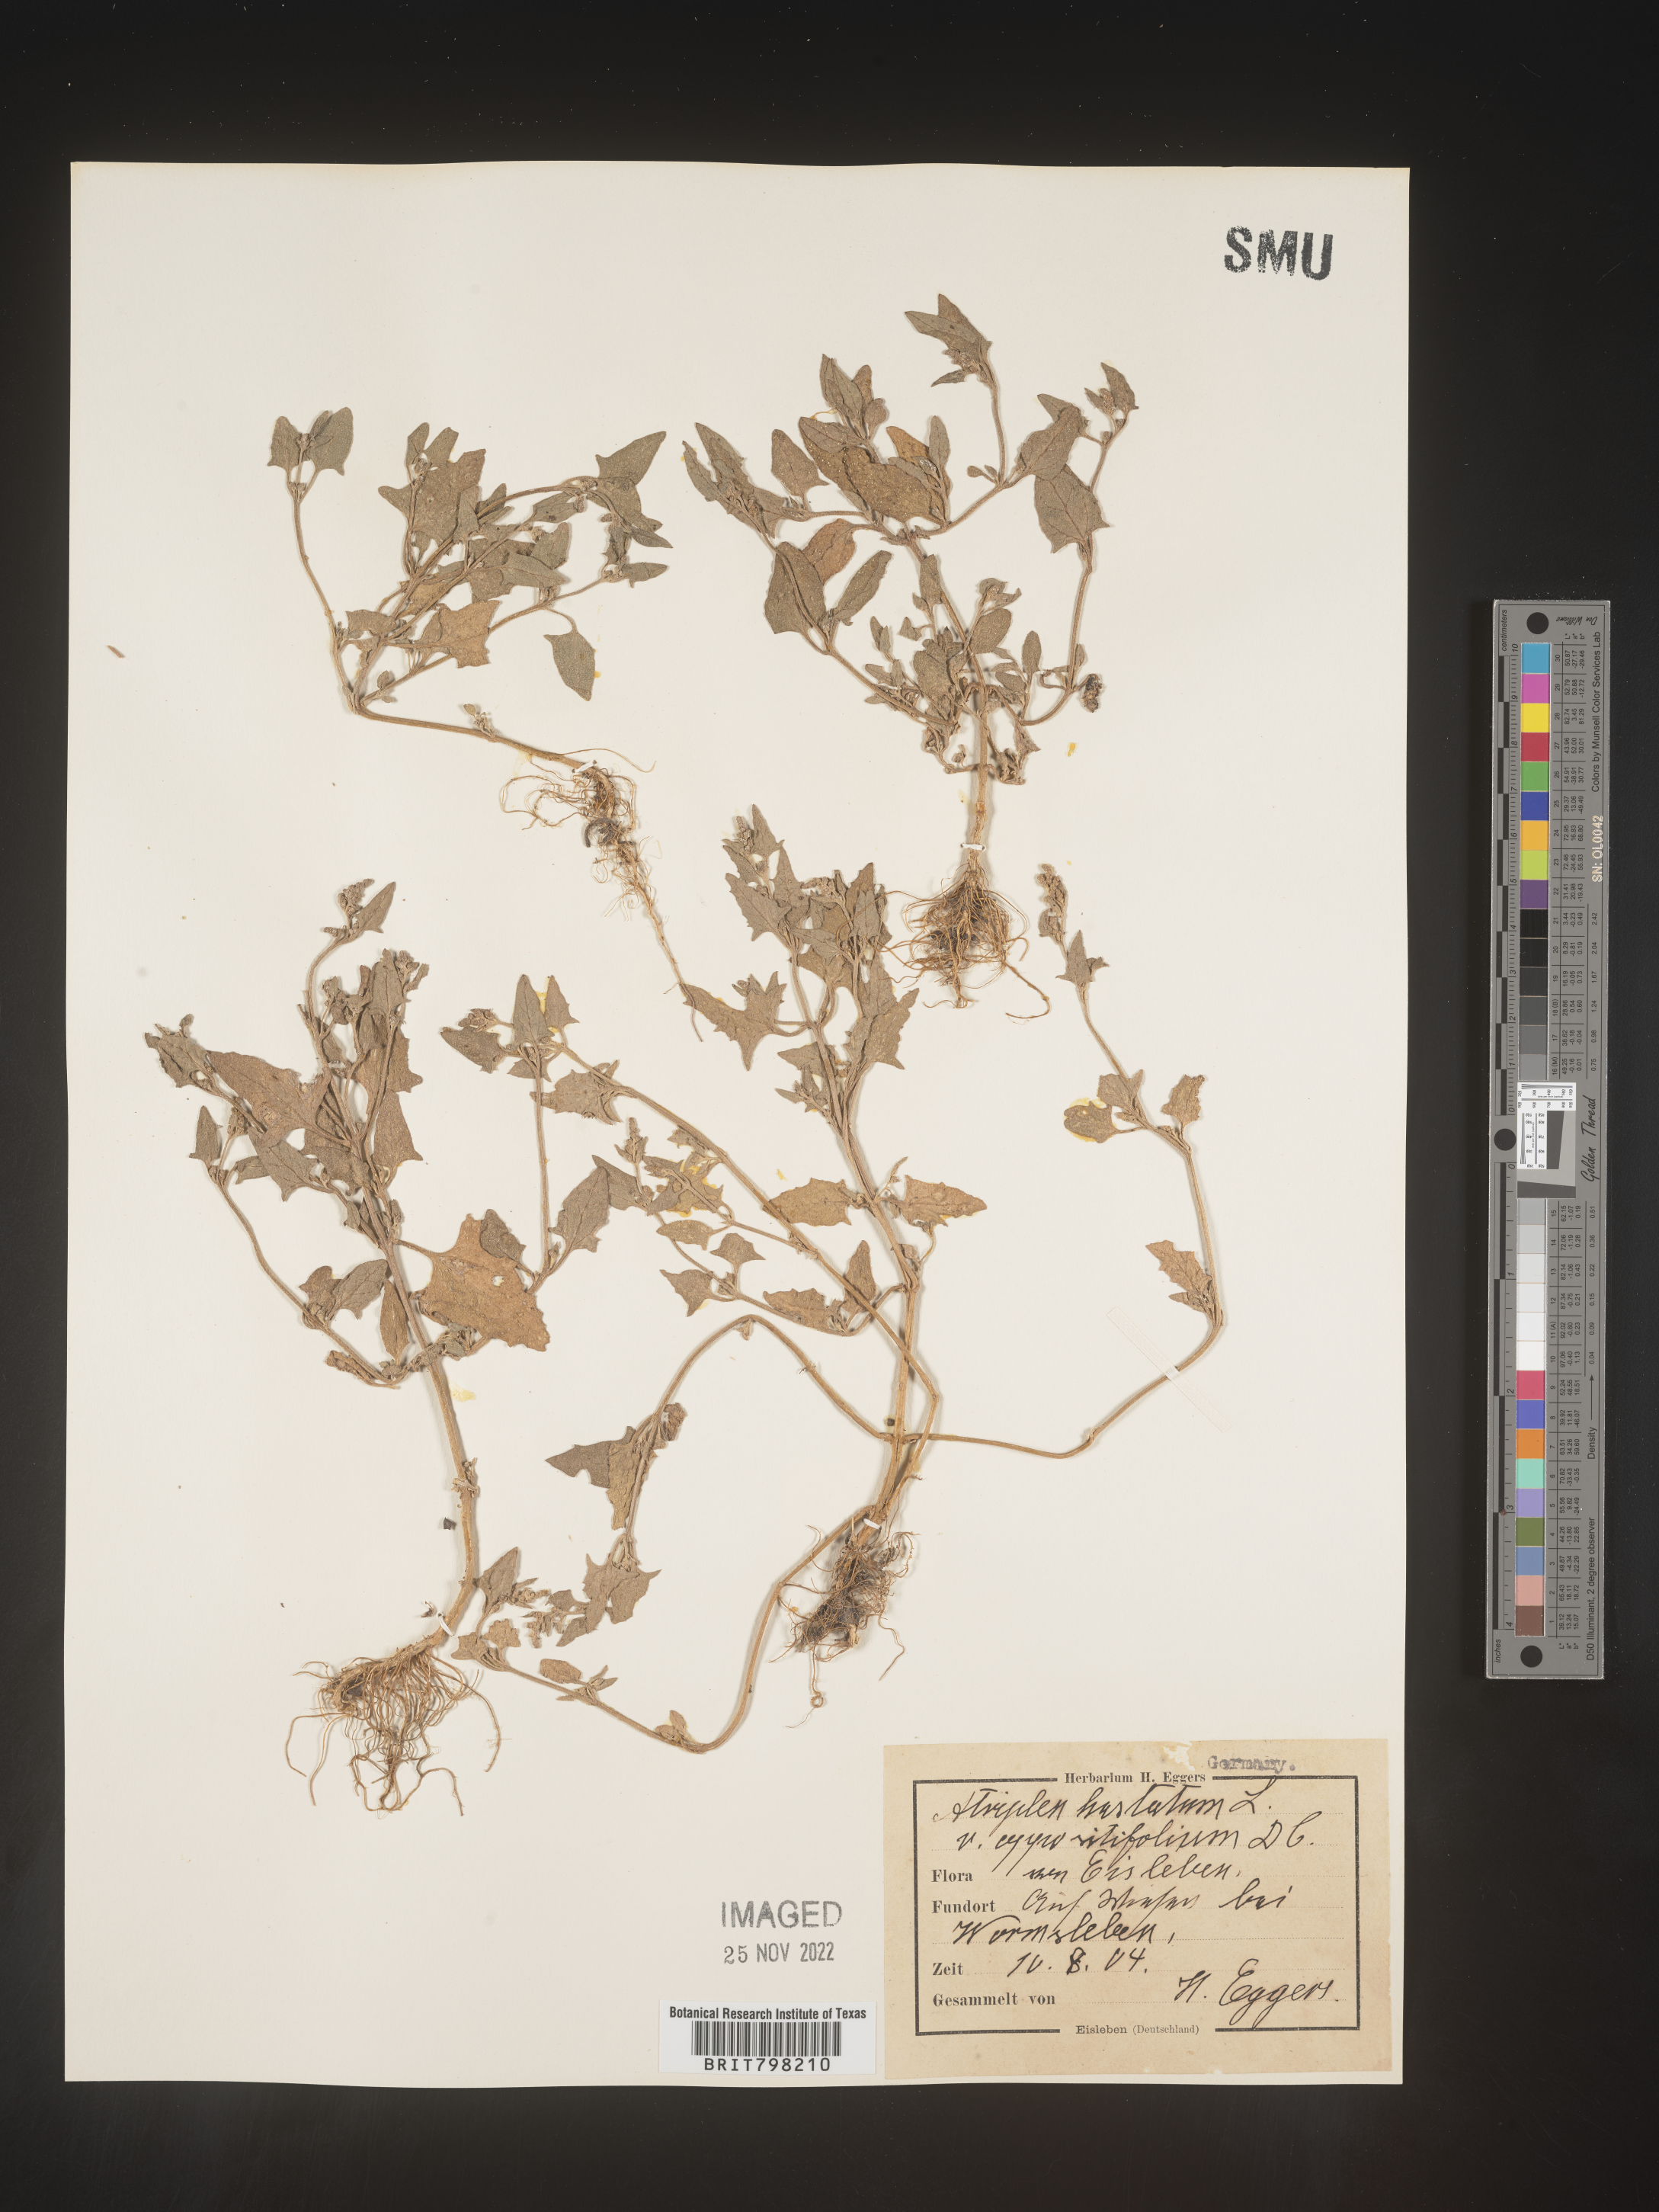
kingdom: Plantae
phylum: Tracheophyta
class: Magnoliopsida
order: Caryophyllales
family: Amaranthaceae
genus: Atriplex
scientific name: Atriplex
